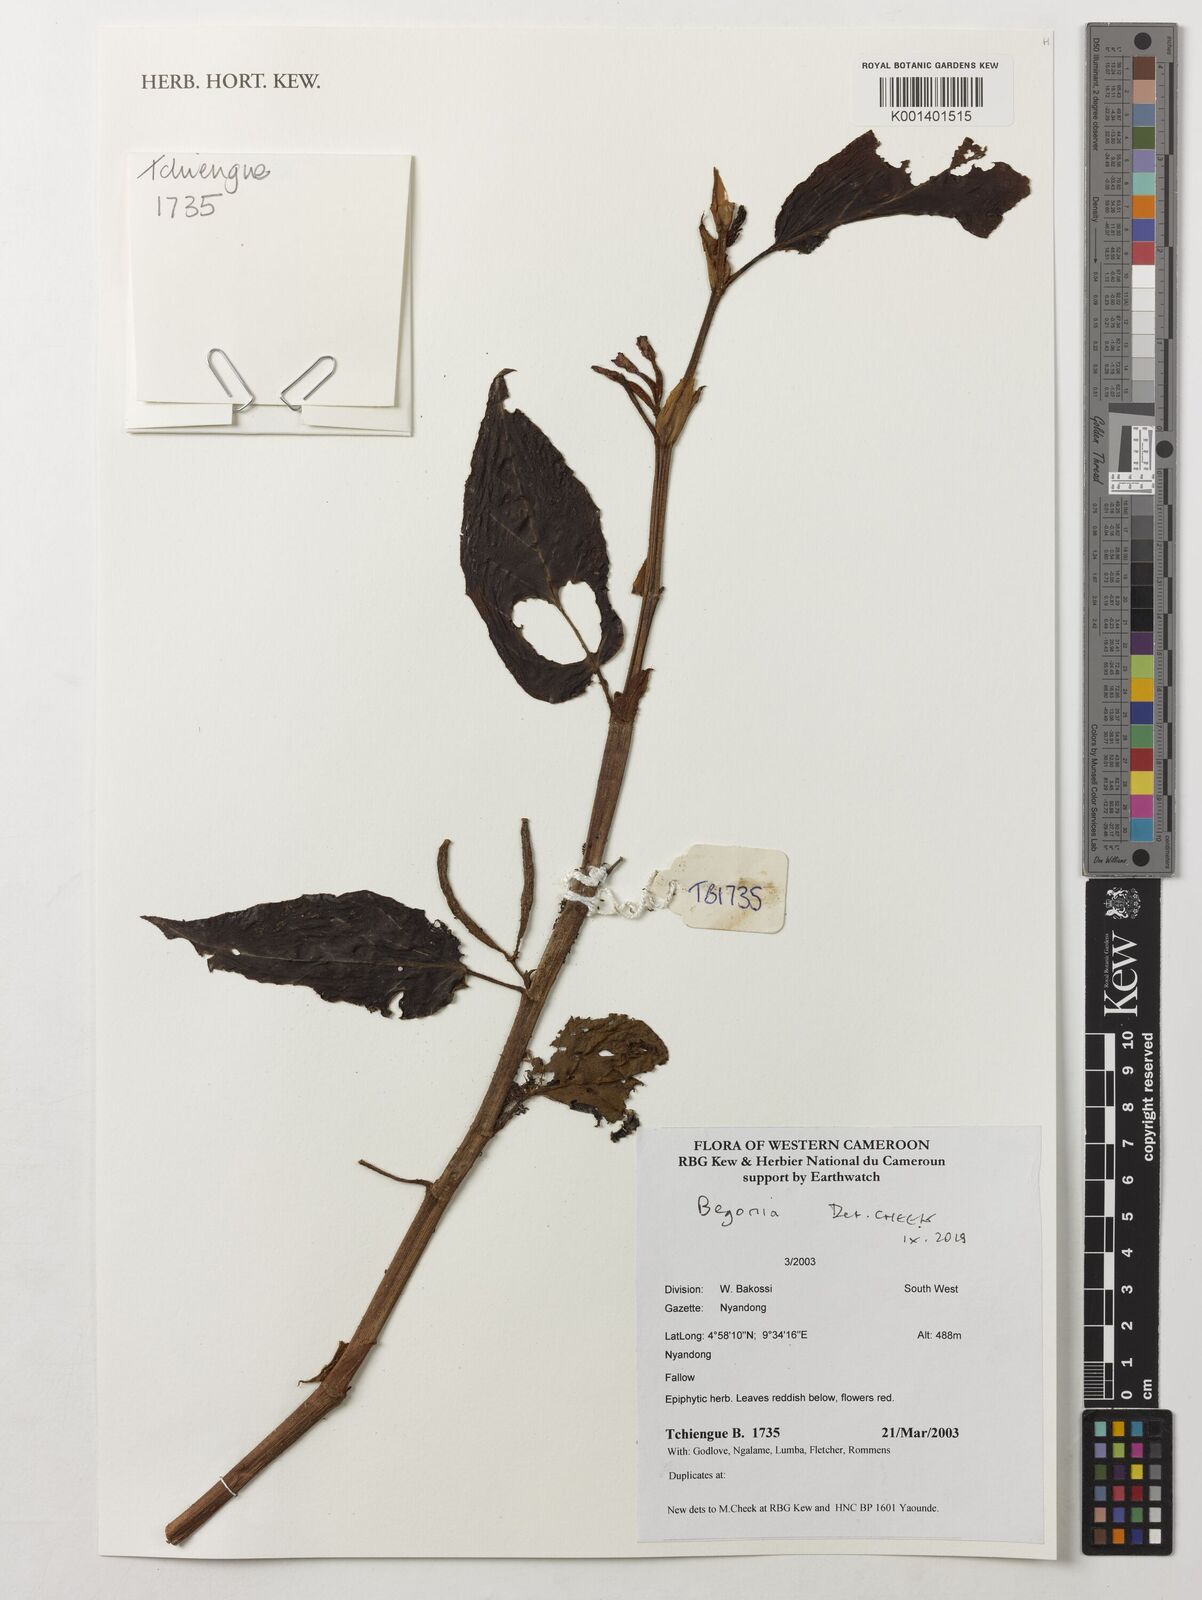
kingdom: Plantae
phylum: Tracheophyta
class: Magnoliopsida
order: Cucurbitales
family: Begoniaceae
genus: Begonia
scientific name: Begonia
